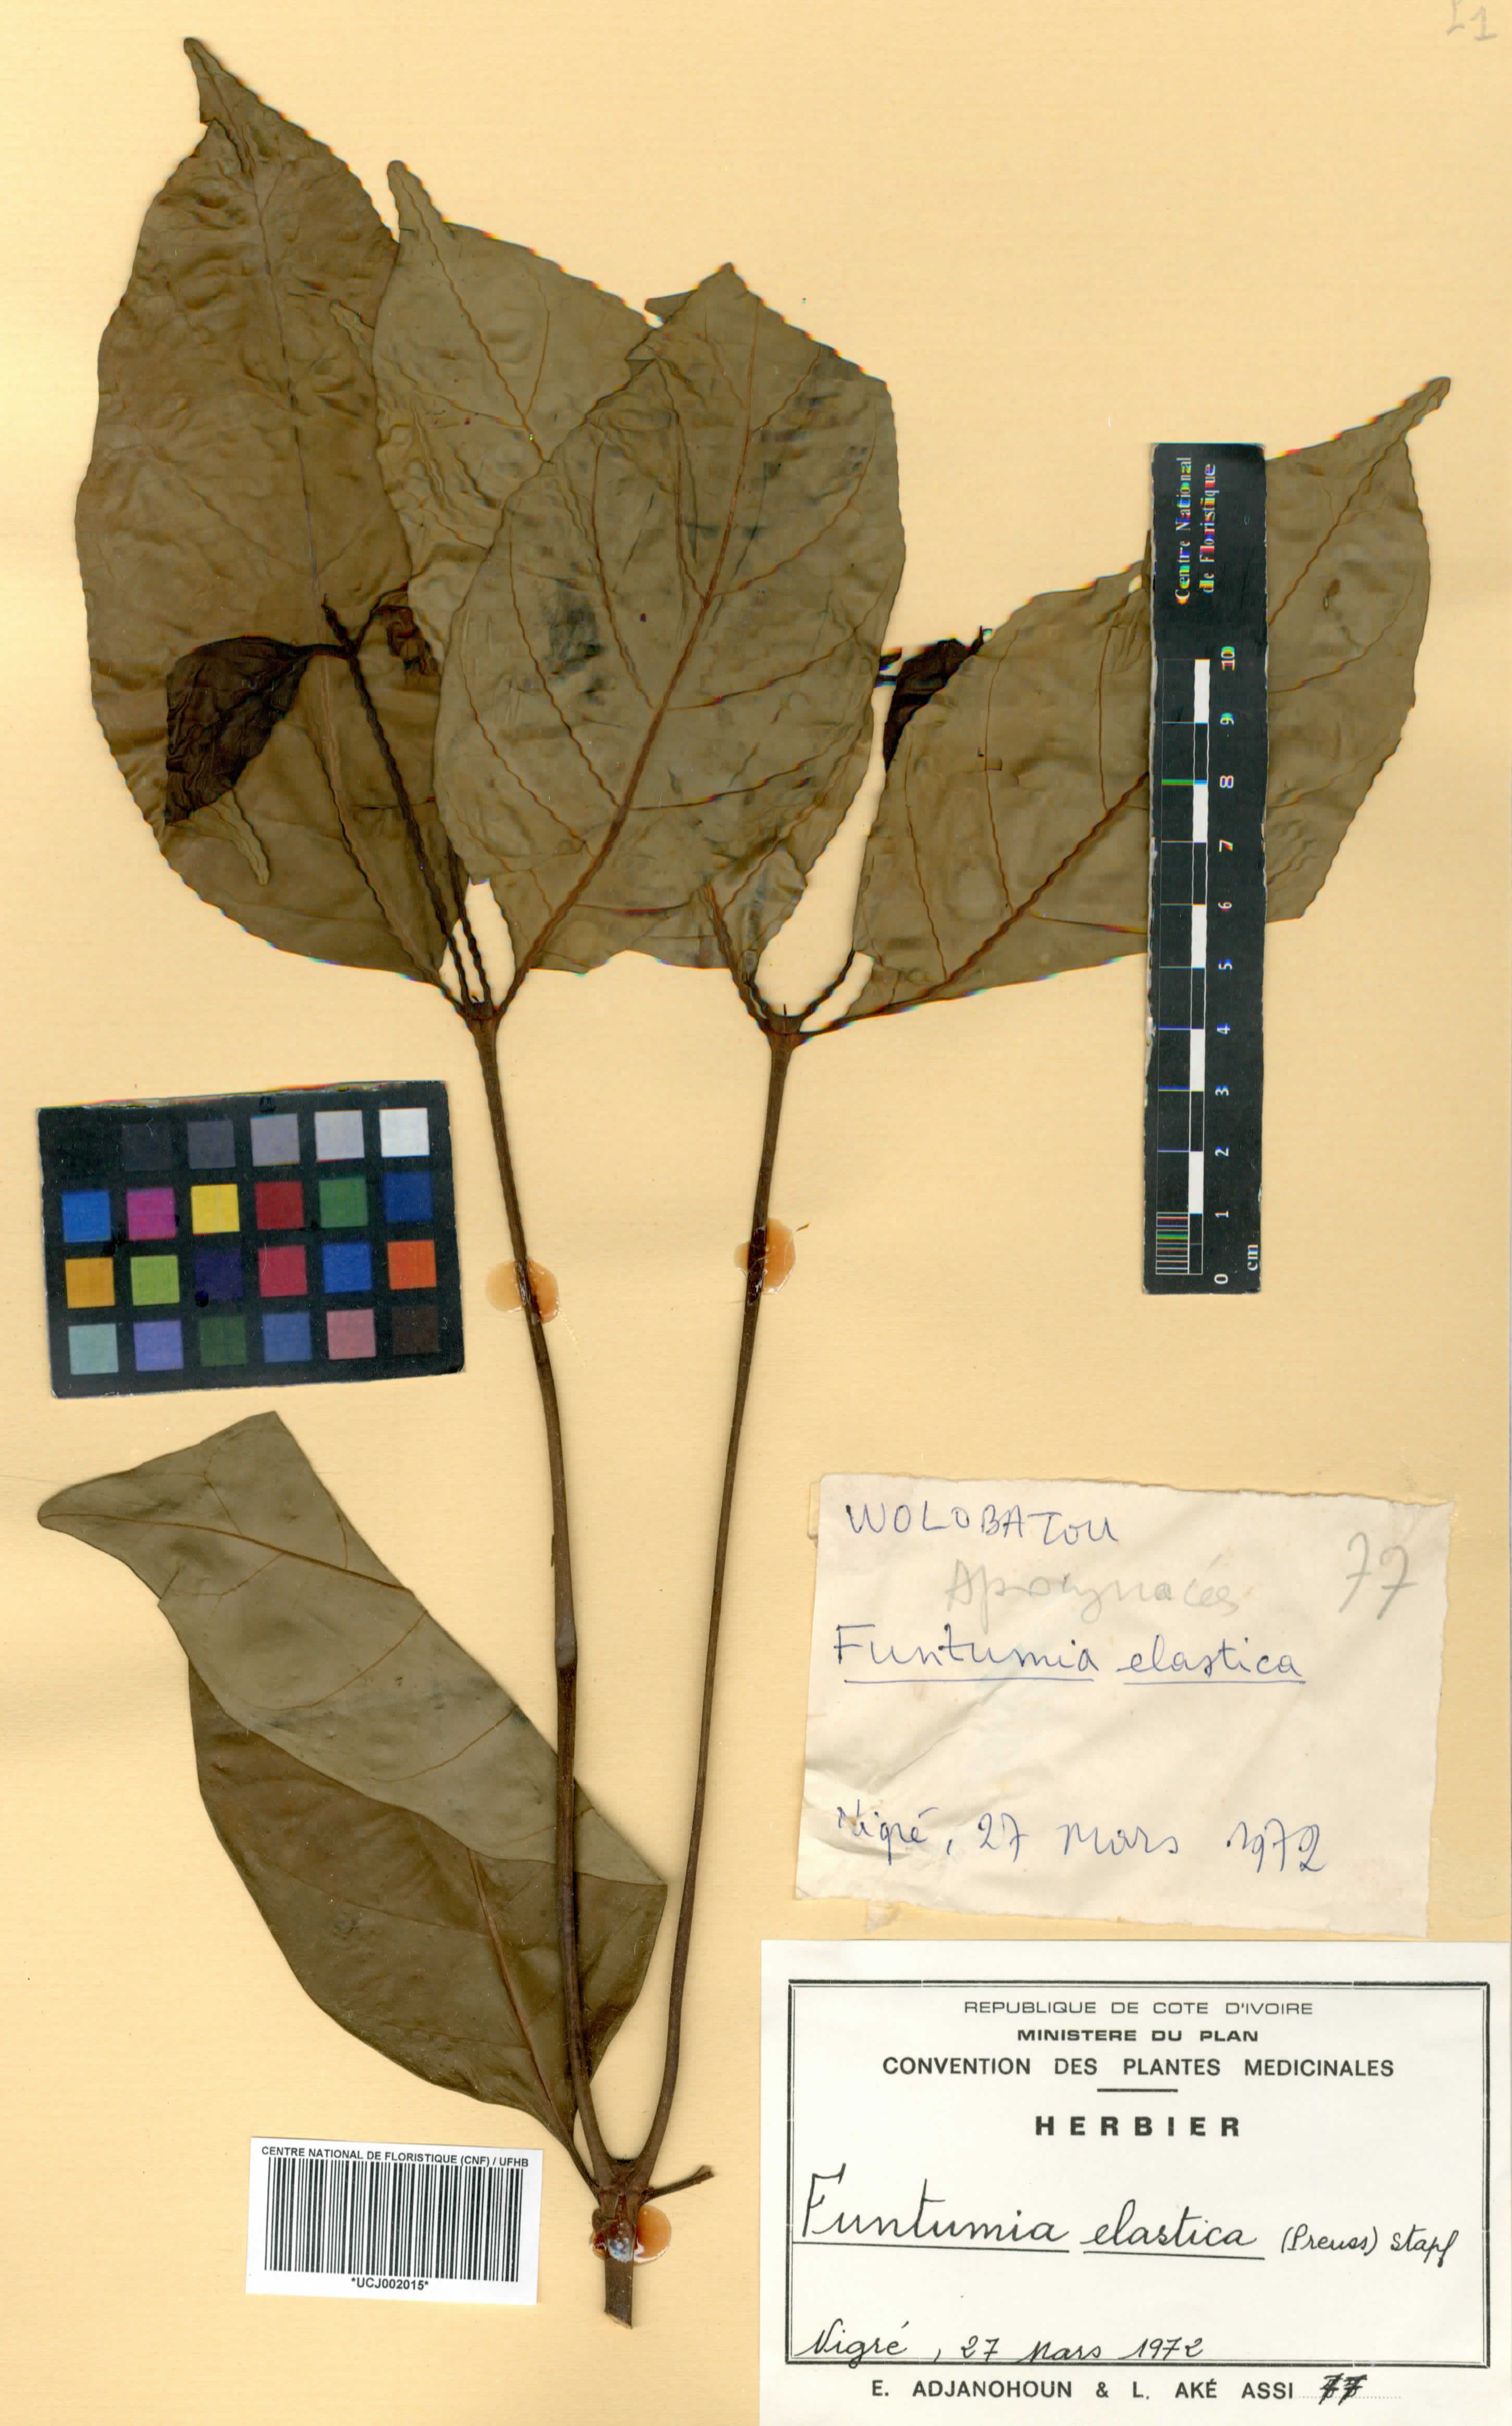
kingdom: Plantae
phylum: Tracheophyta
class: Magnoliopsida
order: Gentianales
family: Apocynaceae
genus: Funtumia
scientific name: Funtumia elastica
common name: Silkrubber
